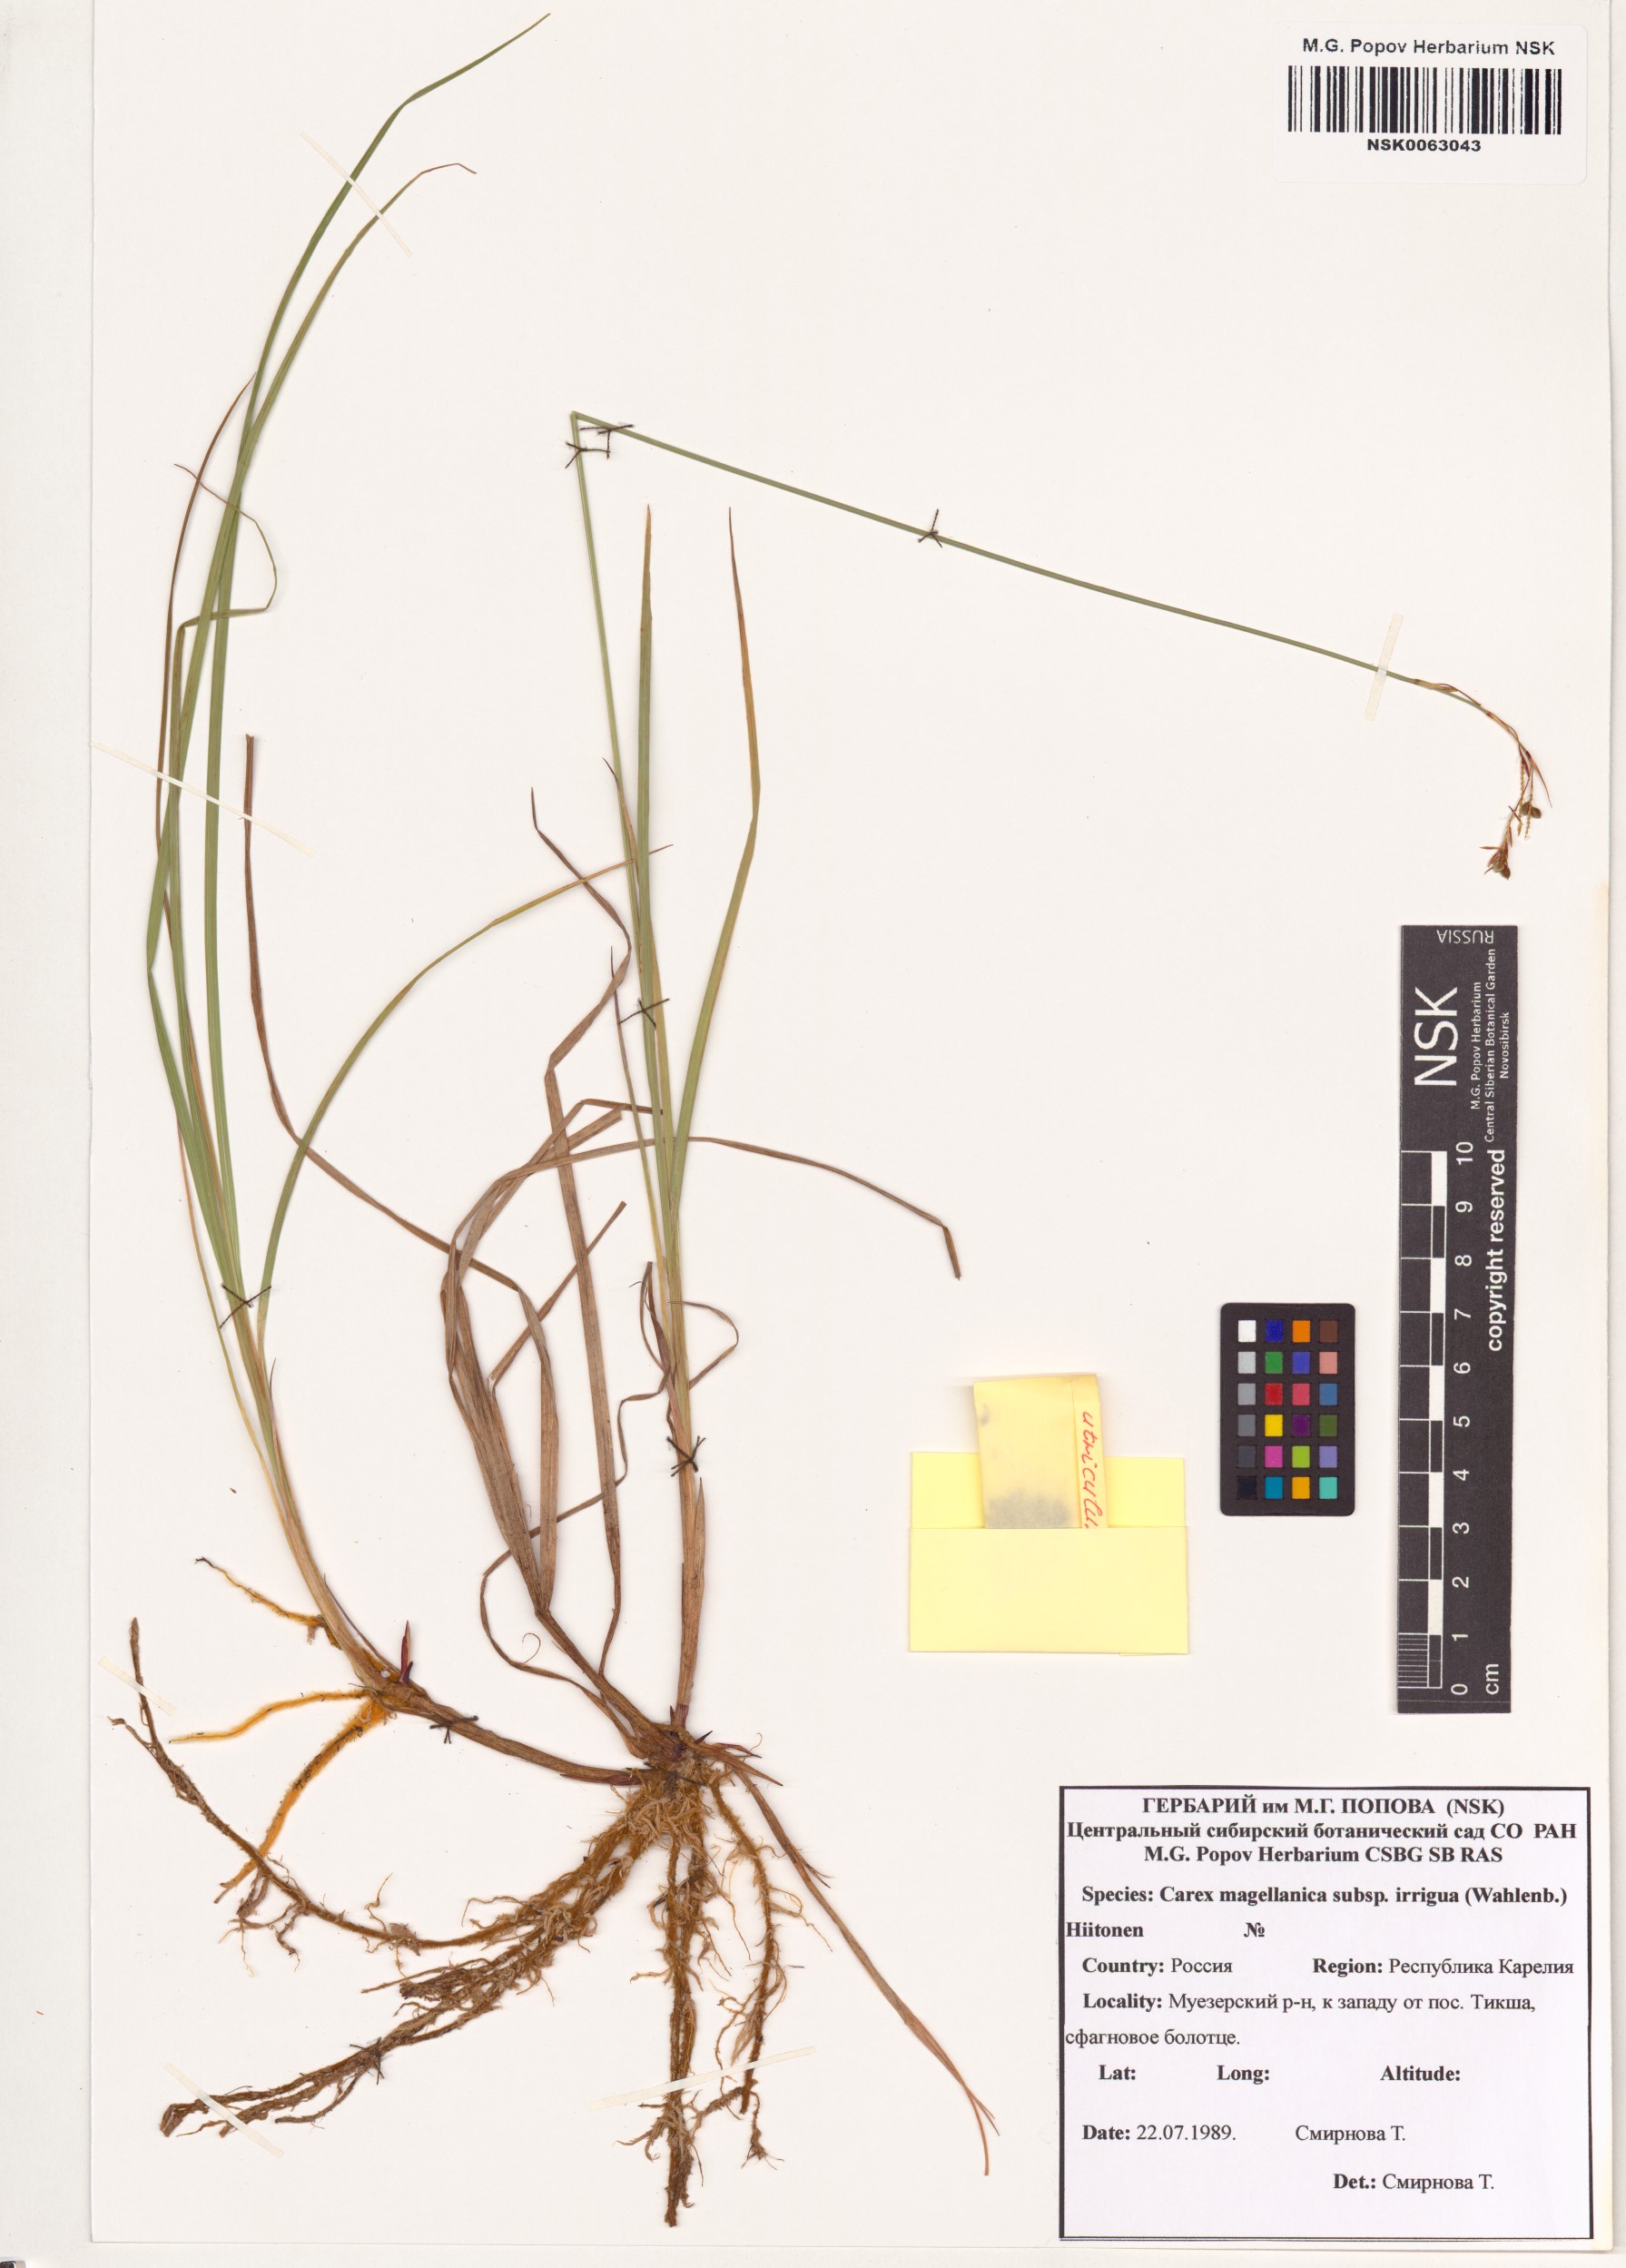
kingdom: Plantae
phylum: Tracheophyta
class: Liliopsida
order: Poales
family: Cyperaceae
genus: Carex
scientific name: Carex magellanica
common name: Bog sedge
